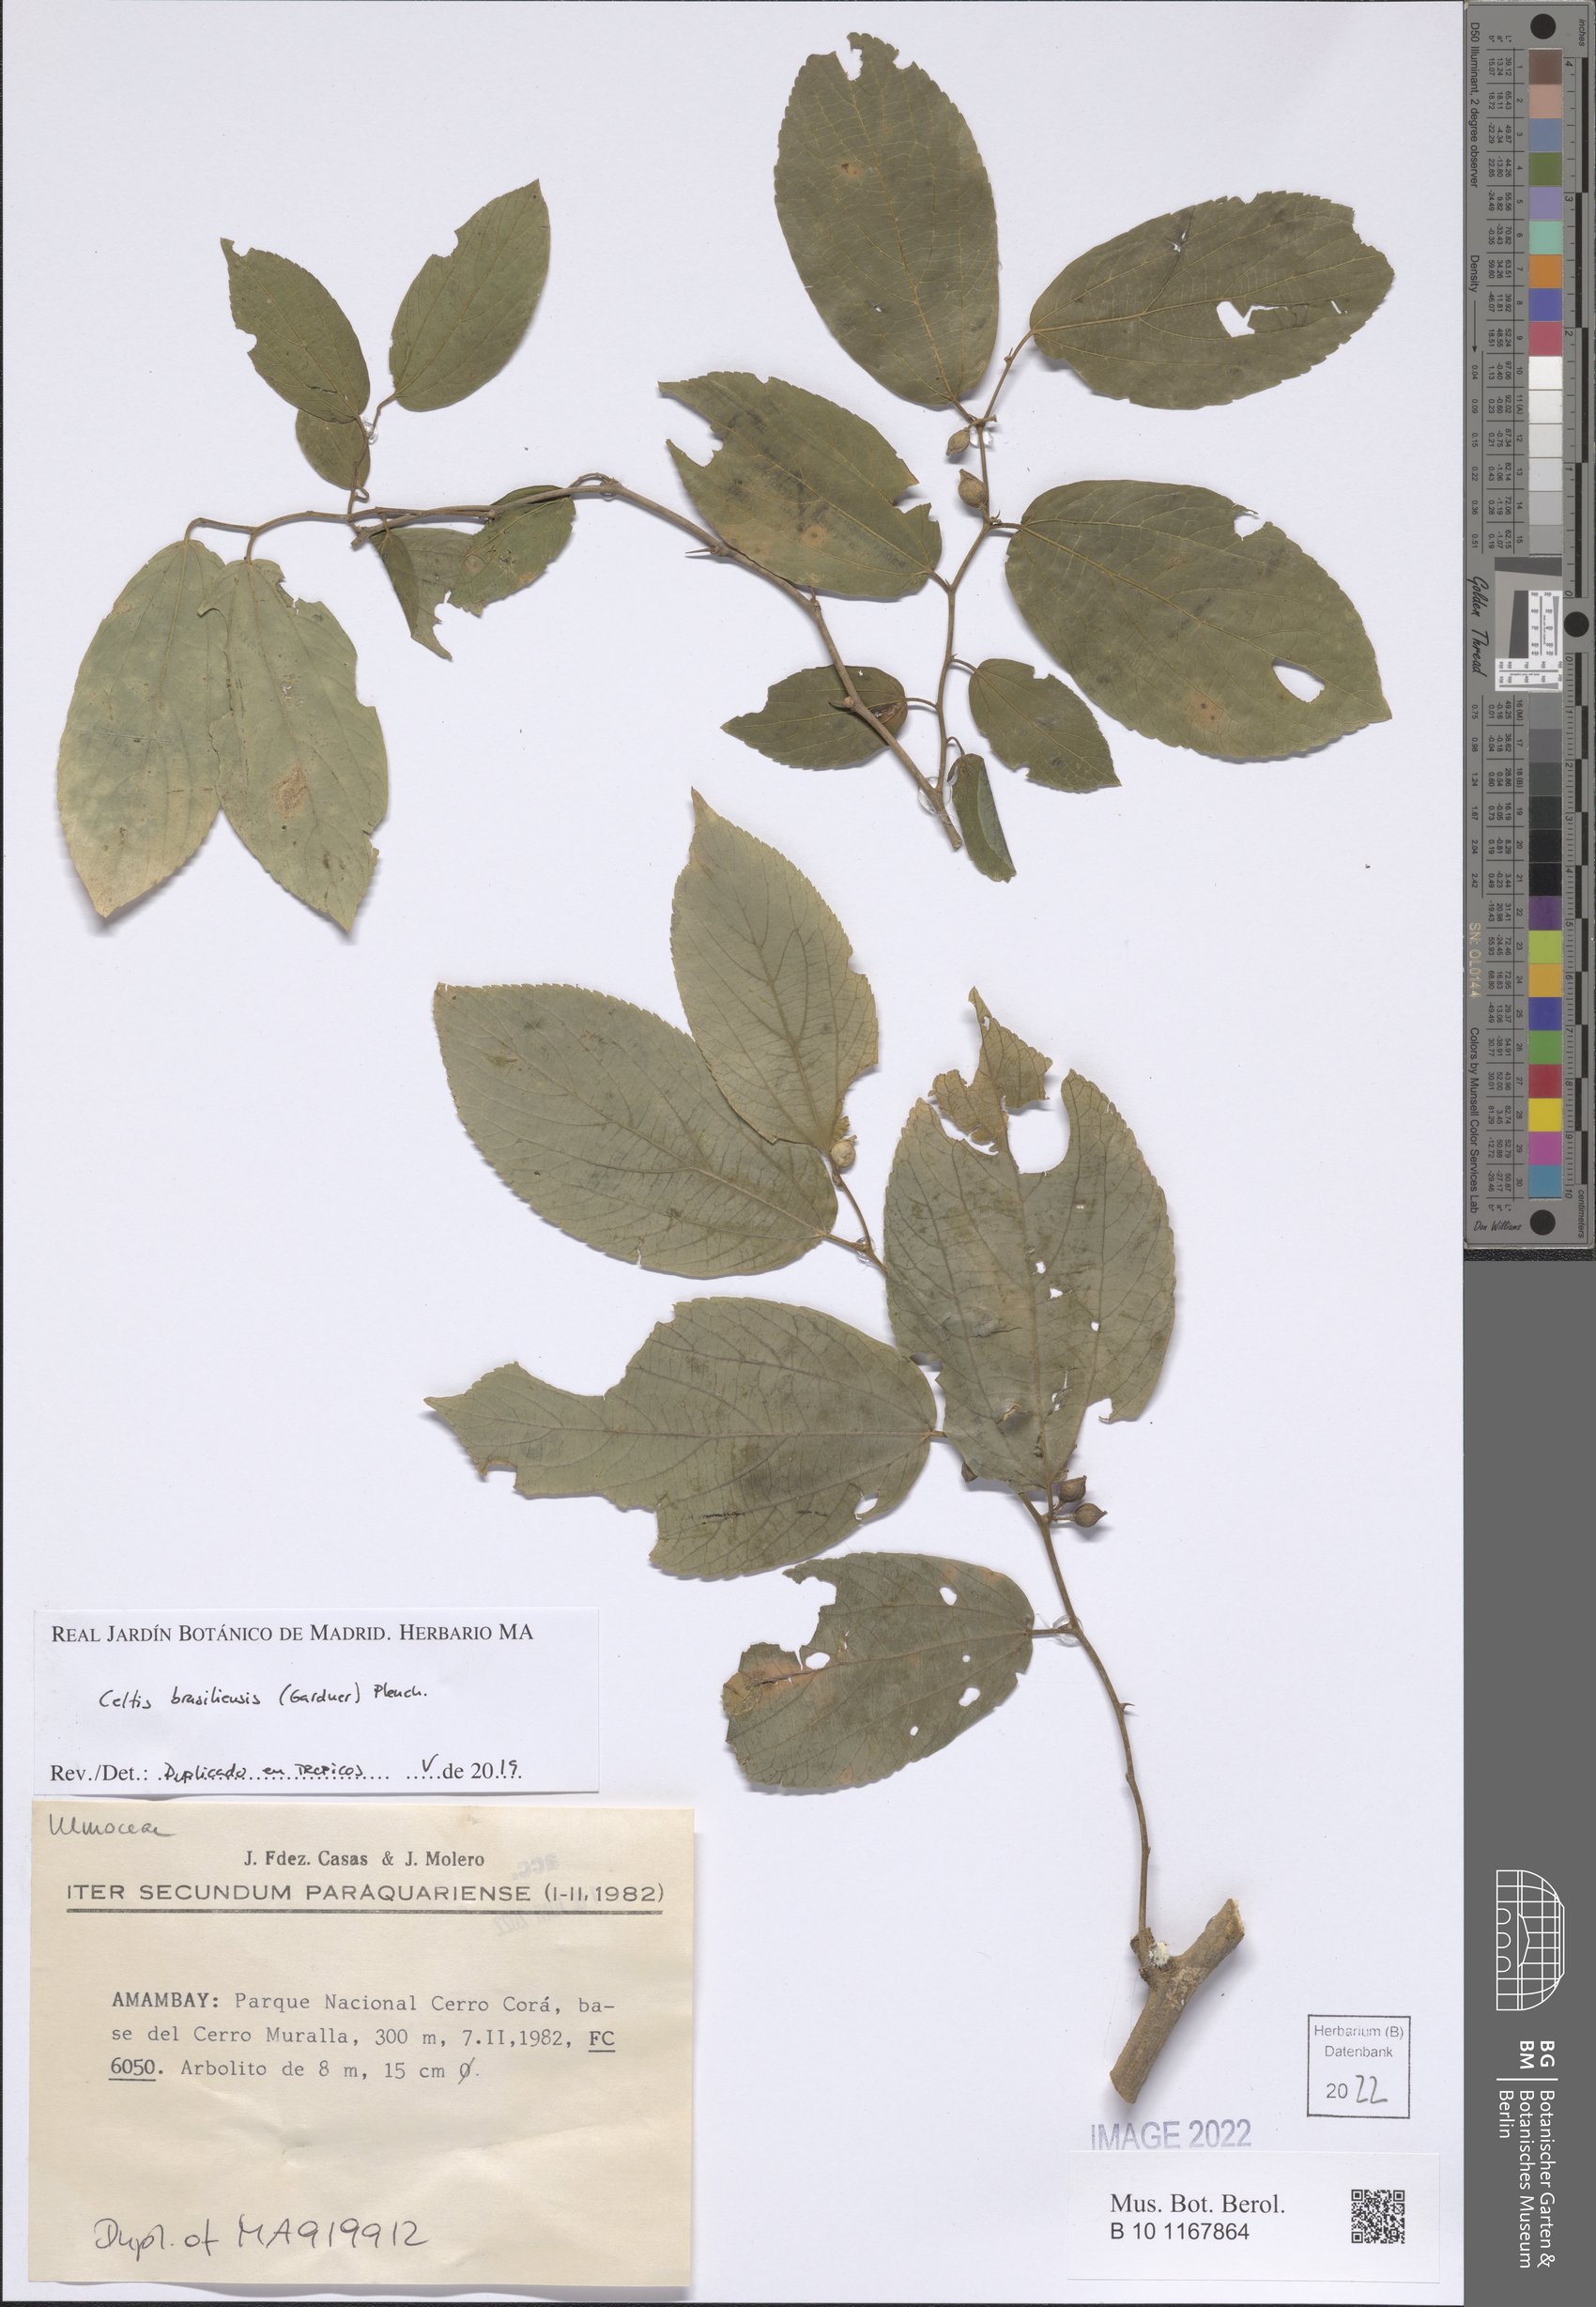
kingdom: Plantae
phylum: Tracheophyta
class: Magnoliopsida
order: Rosales
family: Cannabaceae
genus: Celtis
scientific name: Celtis brasiliensis
